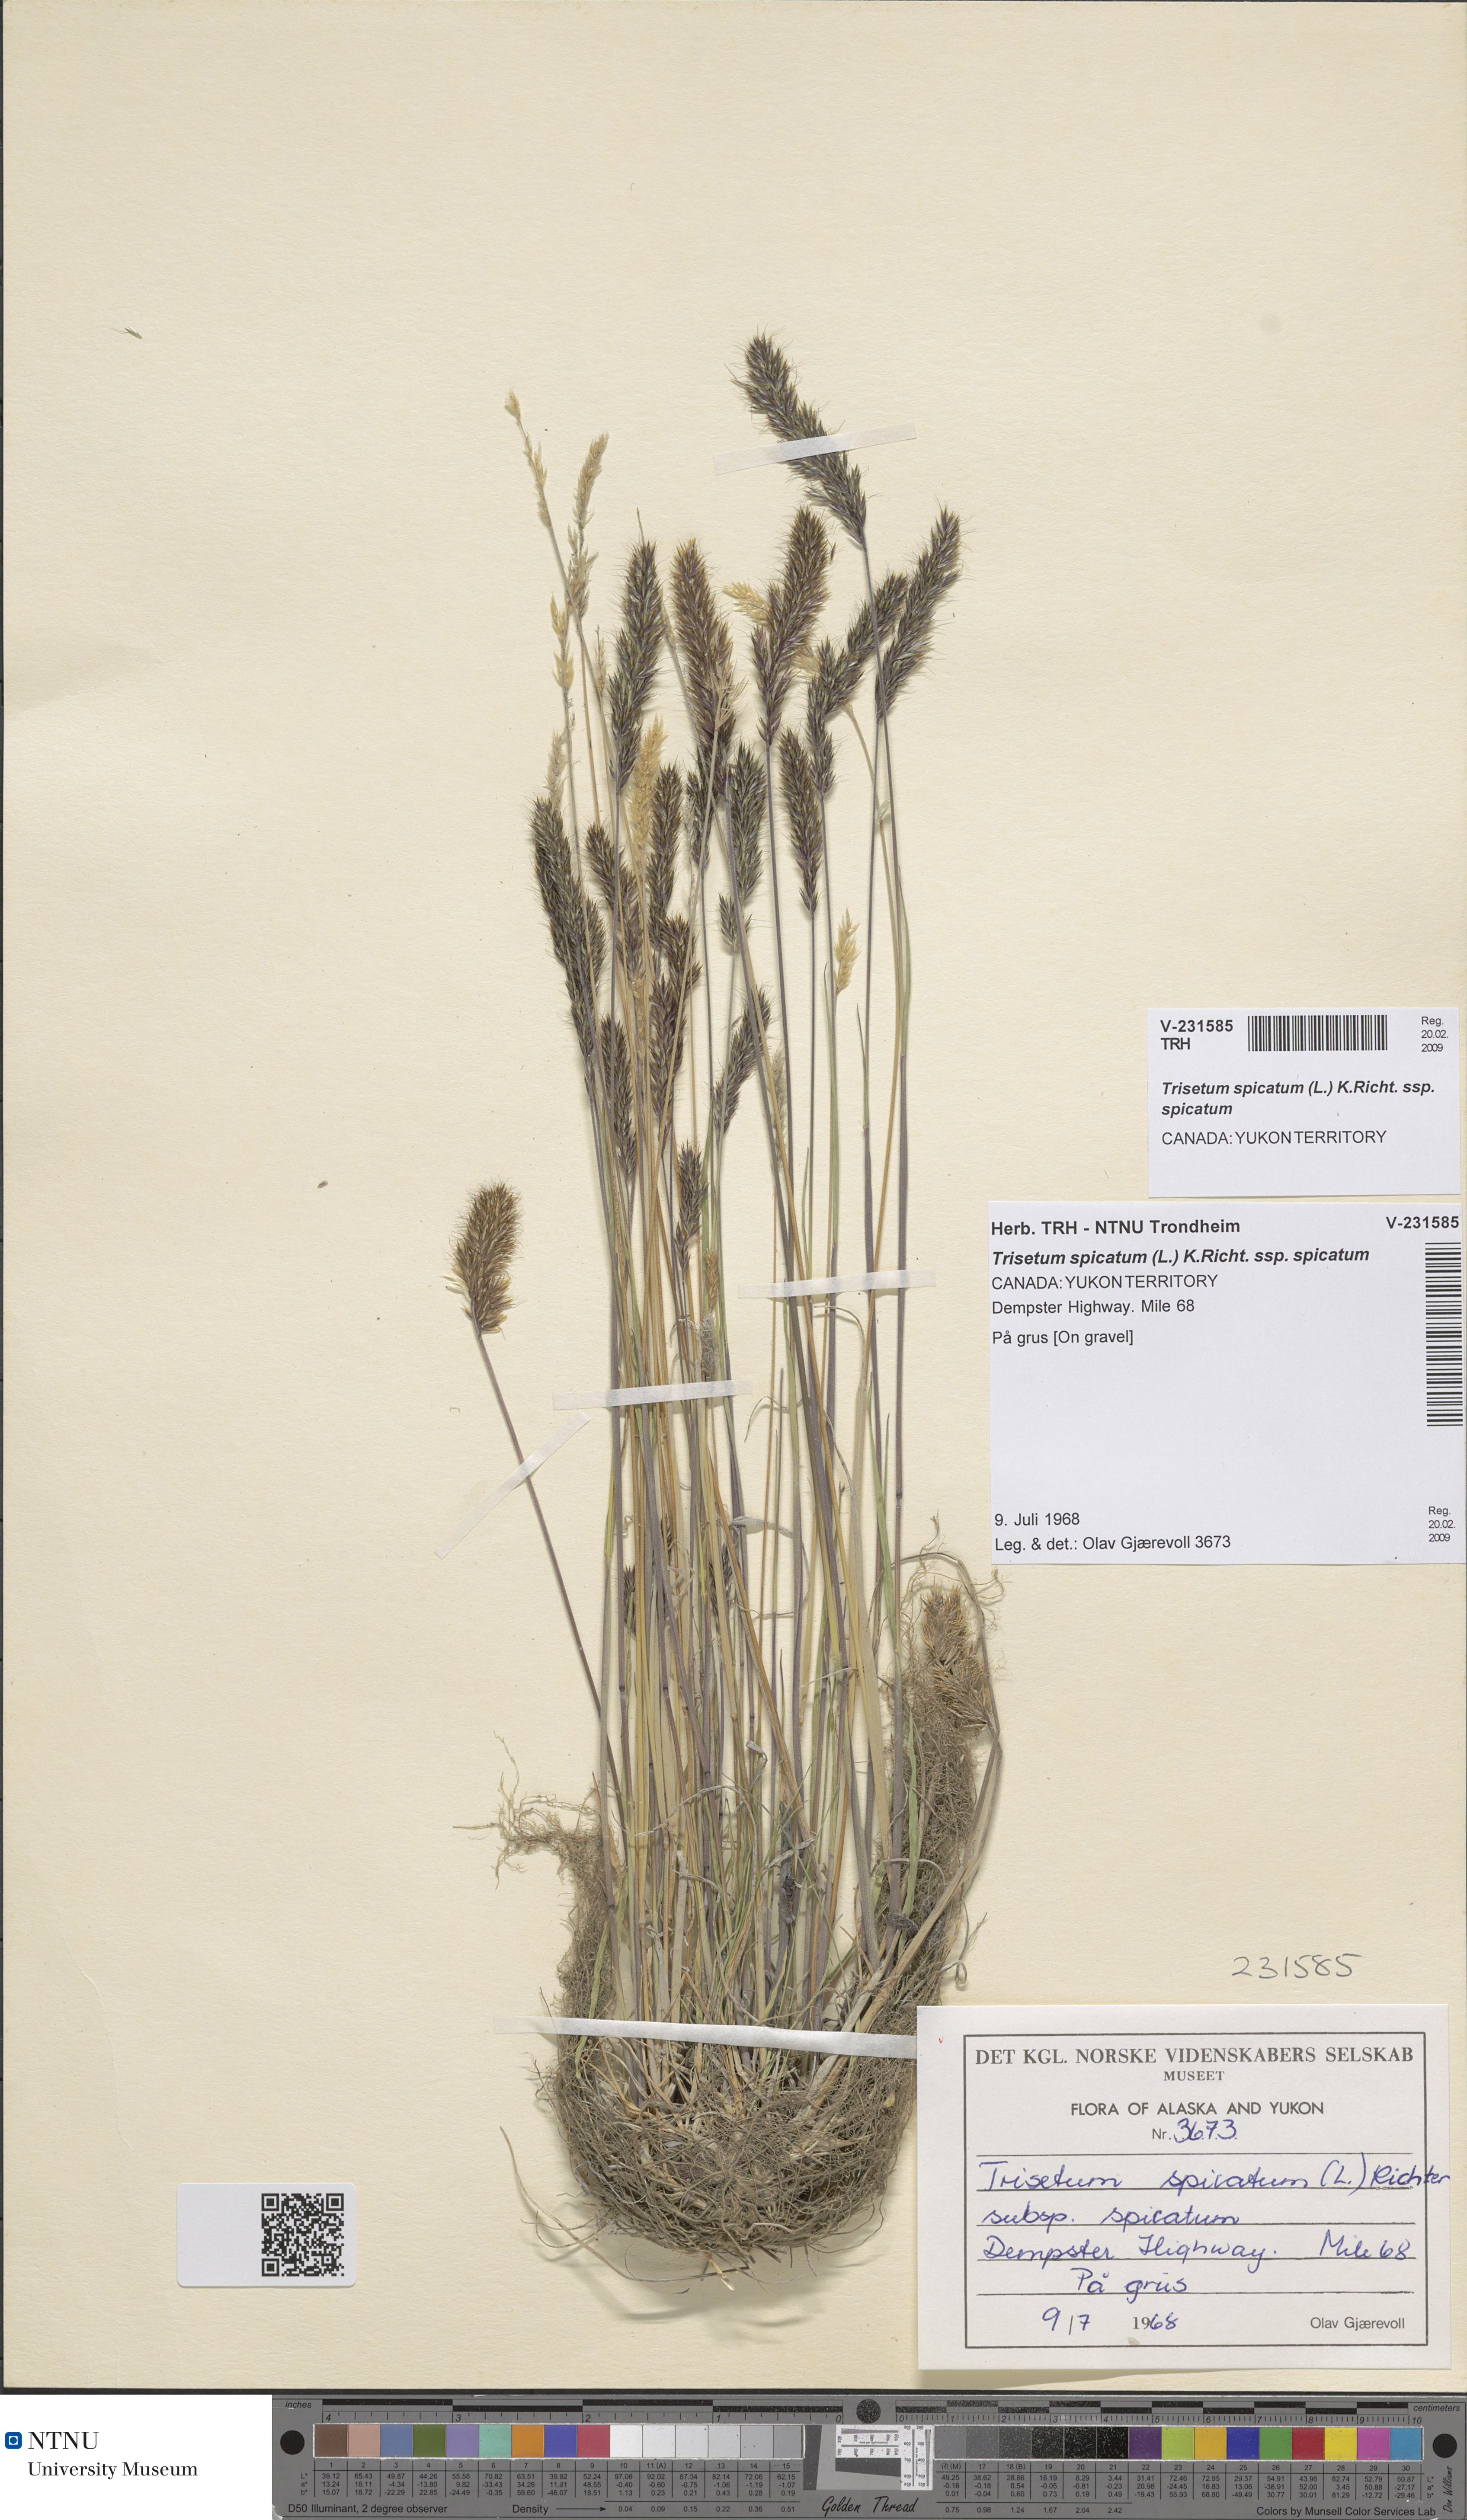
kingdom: Plantae
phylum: Tracheophyta
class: Liliopsida
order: Poales
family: Poaceae
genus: Koeleria
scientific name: Koeleria spicata
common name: Mountain trisetum
